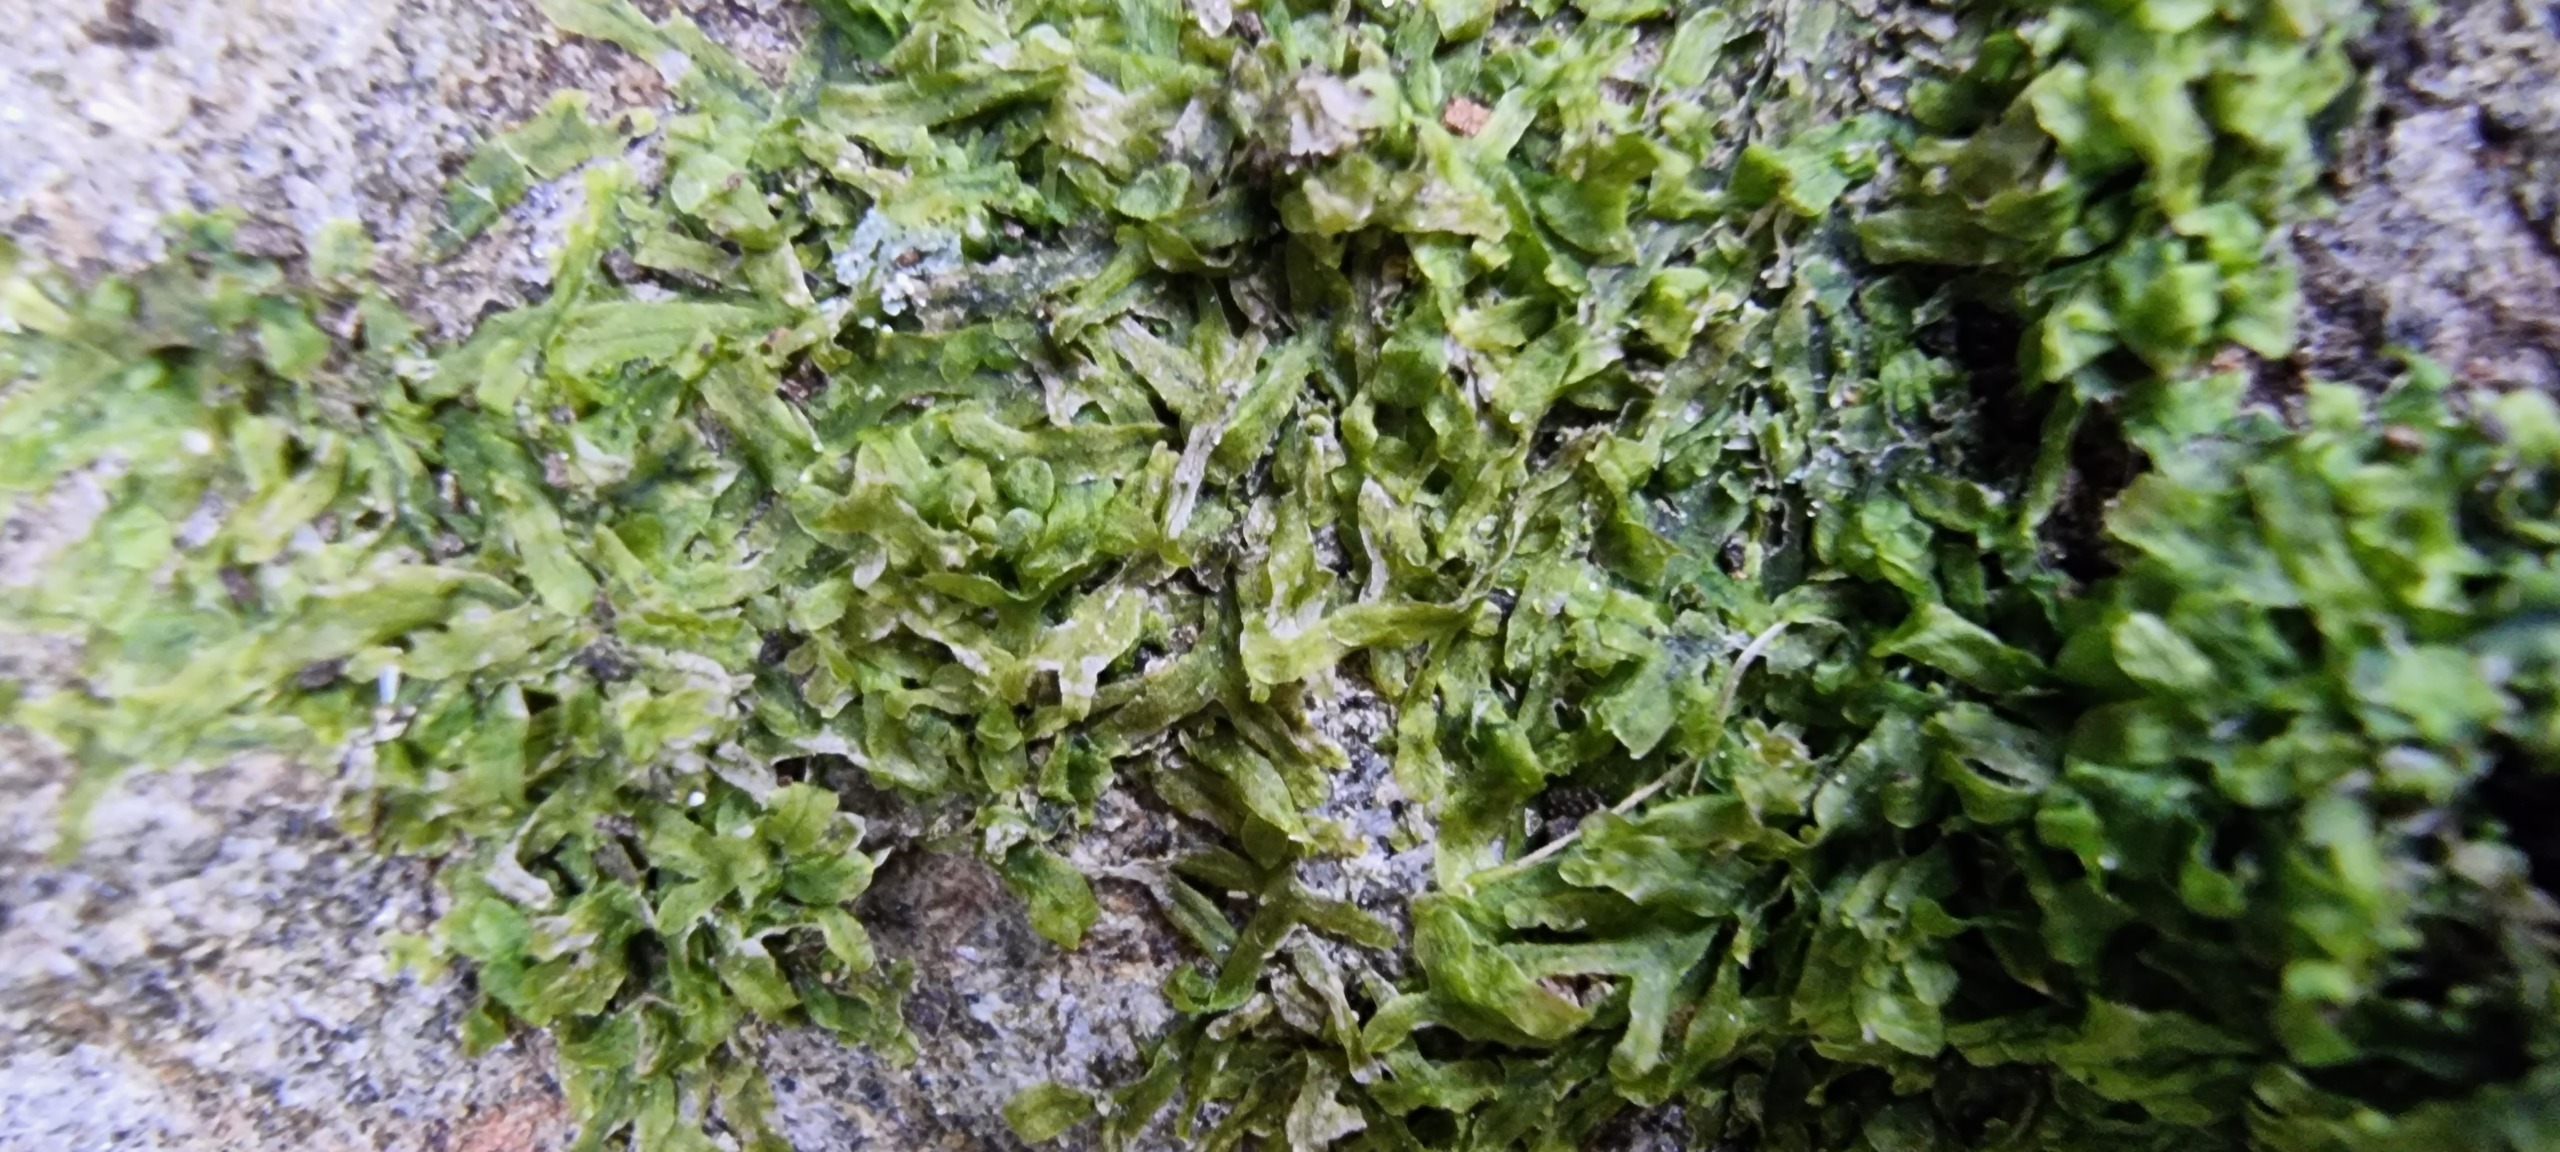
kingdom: Plantae
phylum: Marchantiophyta
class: Jungermanniopsida
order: Metzgeriales
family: Metzgeriaceae
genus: Metzgeria
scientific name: Metzgeria furcata
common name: Almindelig gaffelløv
